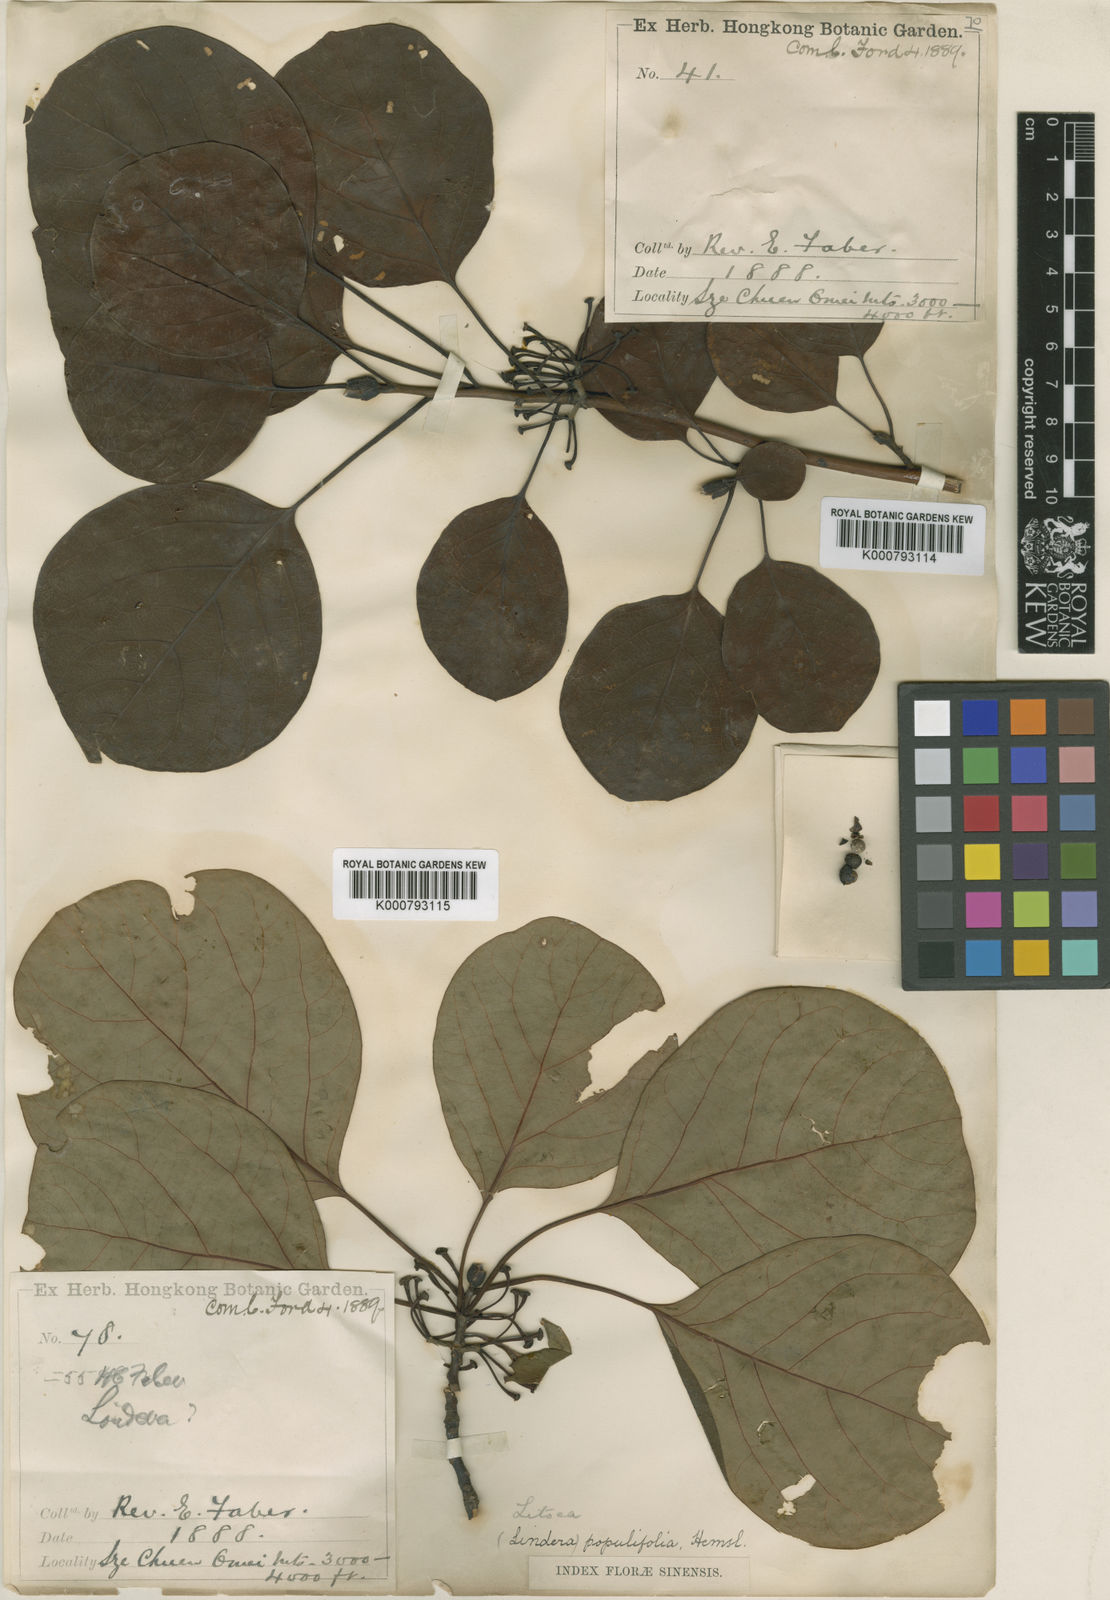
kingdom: Plantae
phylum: Tracheophyta
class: Magnoliopsida
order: Laurales
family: Lauraceae
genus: Litsea
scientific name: Litsea populifolia
